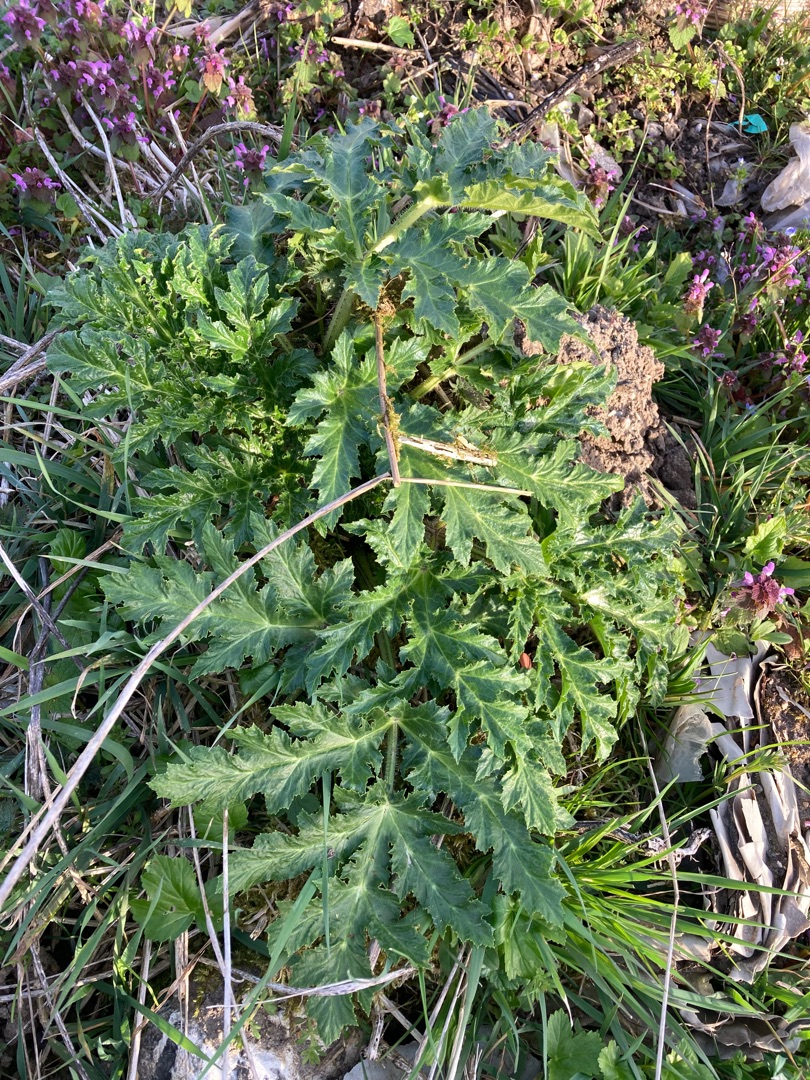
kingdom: Plantae
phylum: Tracheophyta
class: Magnoliopsida
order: Apiales
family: Apiaceae
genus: Heracleum
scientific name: Heracleum mantegazzianum
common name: Kæmpe-bjørneklo
